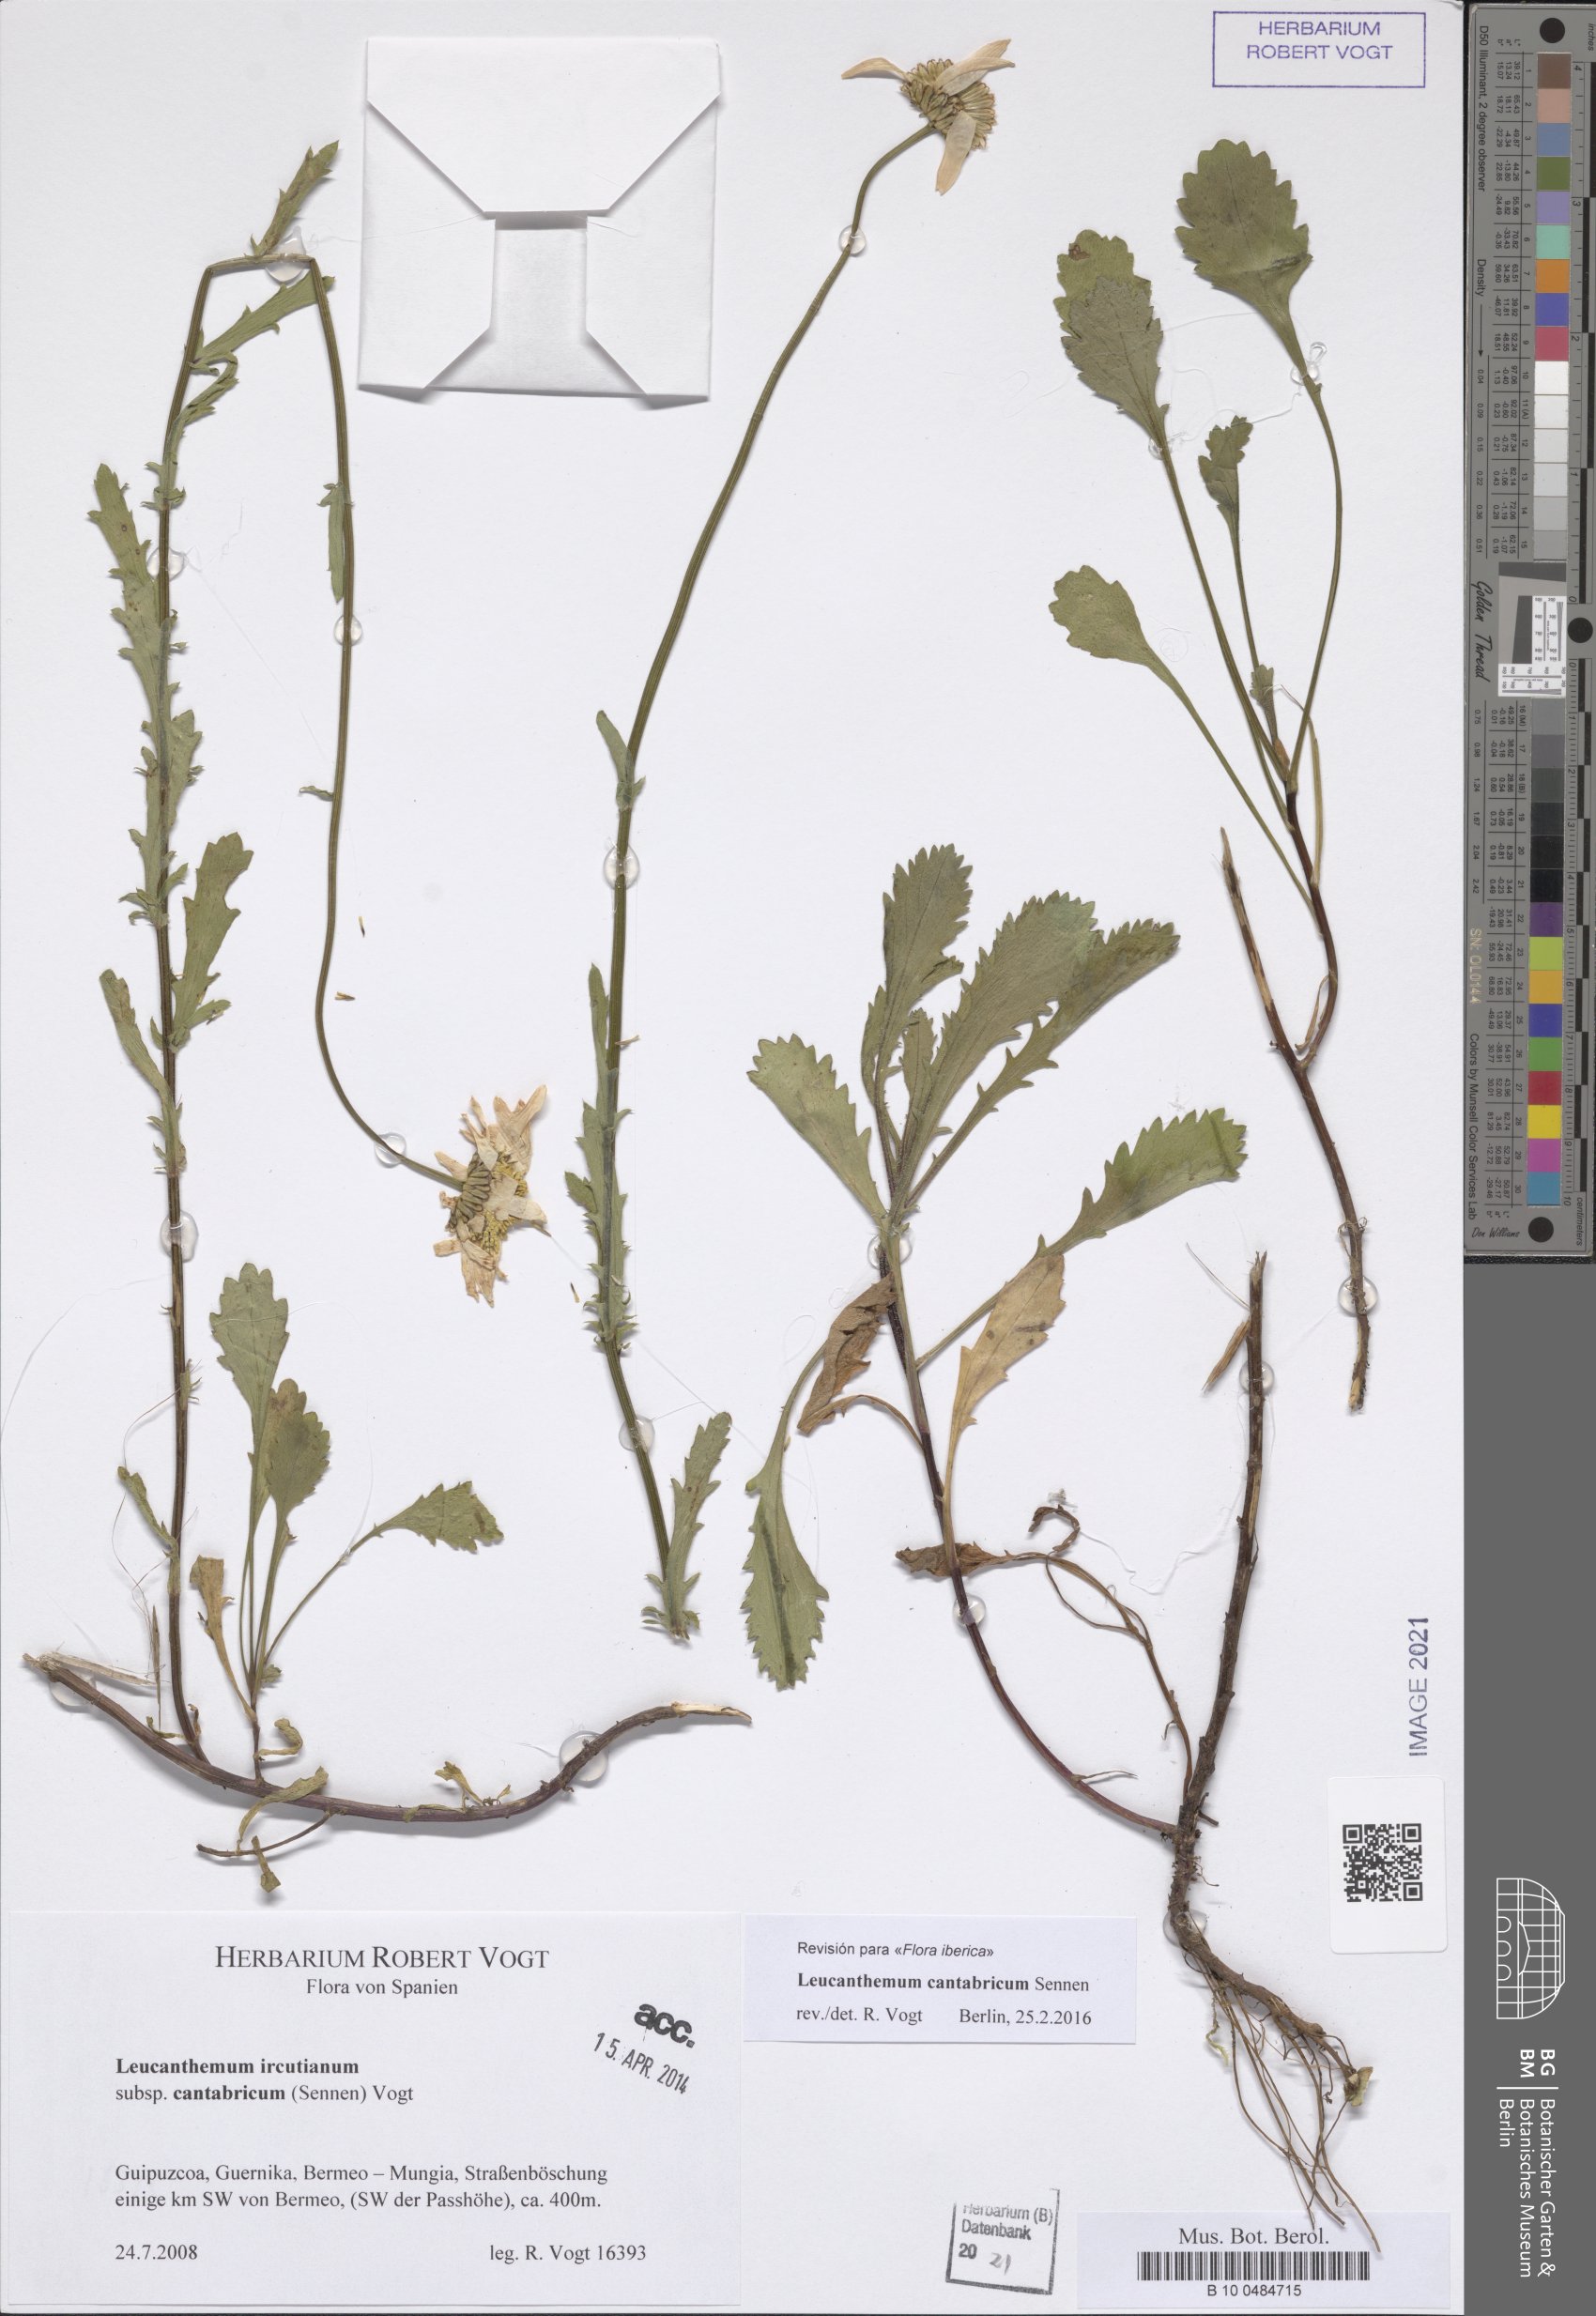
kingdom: Plantae
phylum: Tracheophyta
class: Magnoliopsida
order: Asterales
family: Asteraceae
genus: Leucanthemum
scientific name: Leucanthemum cantabricum
